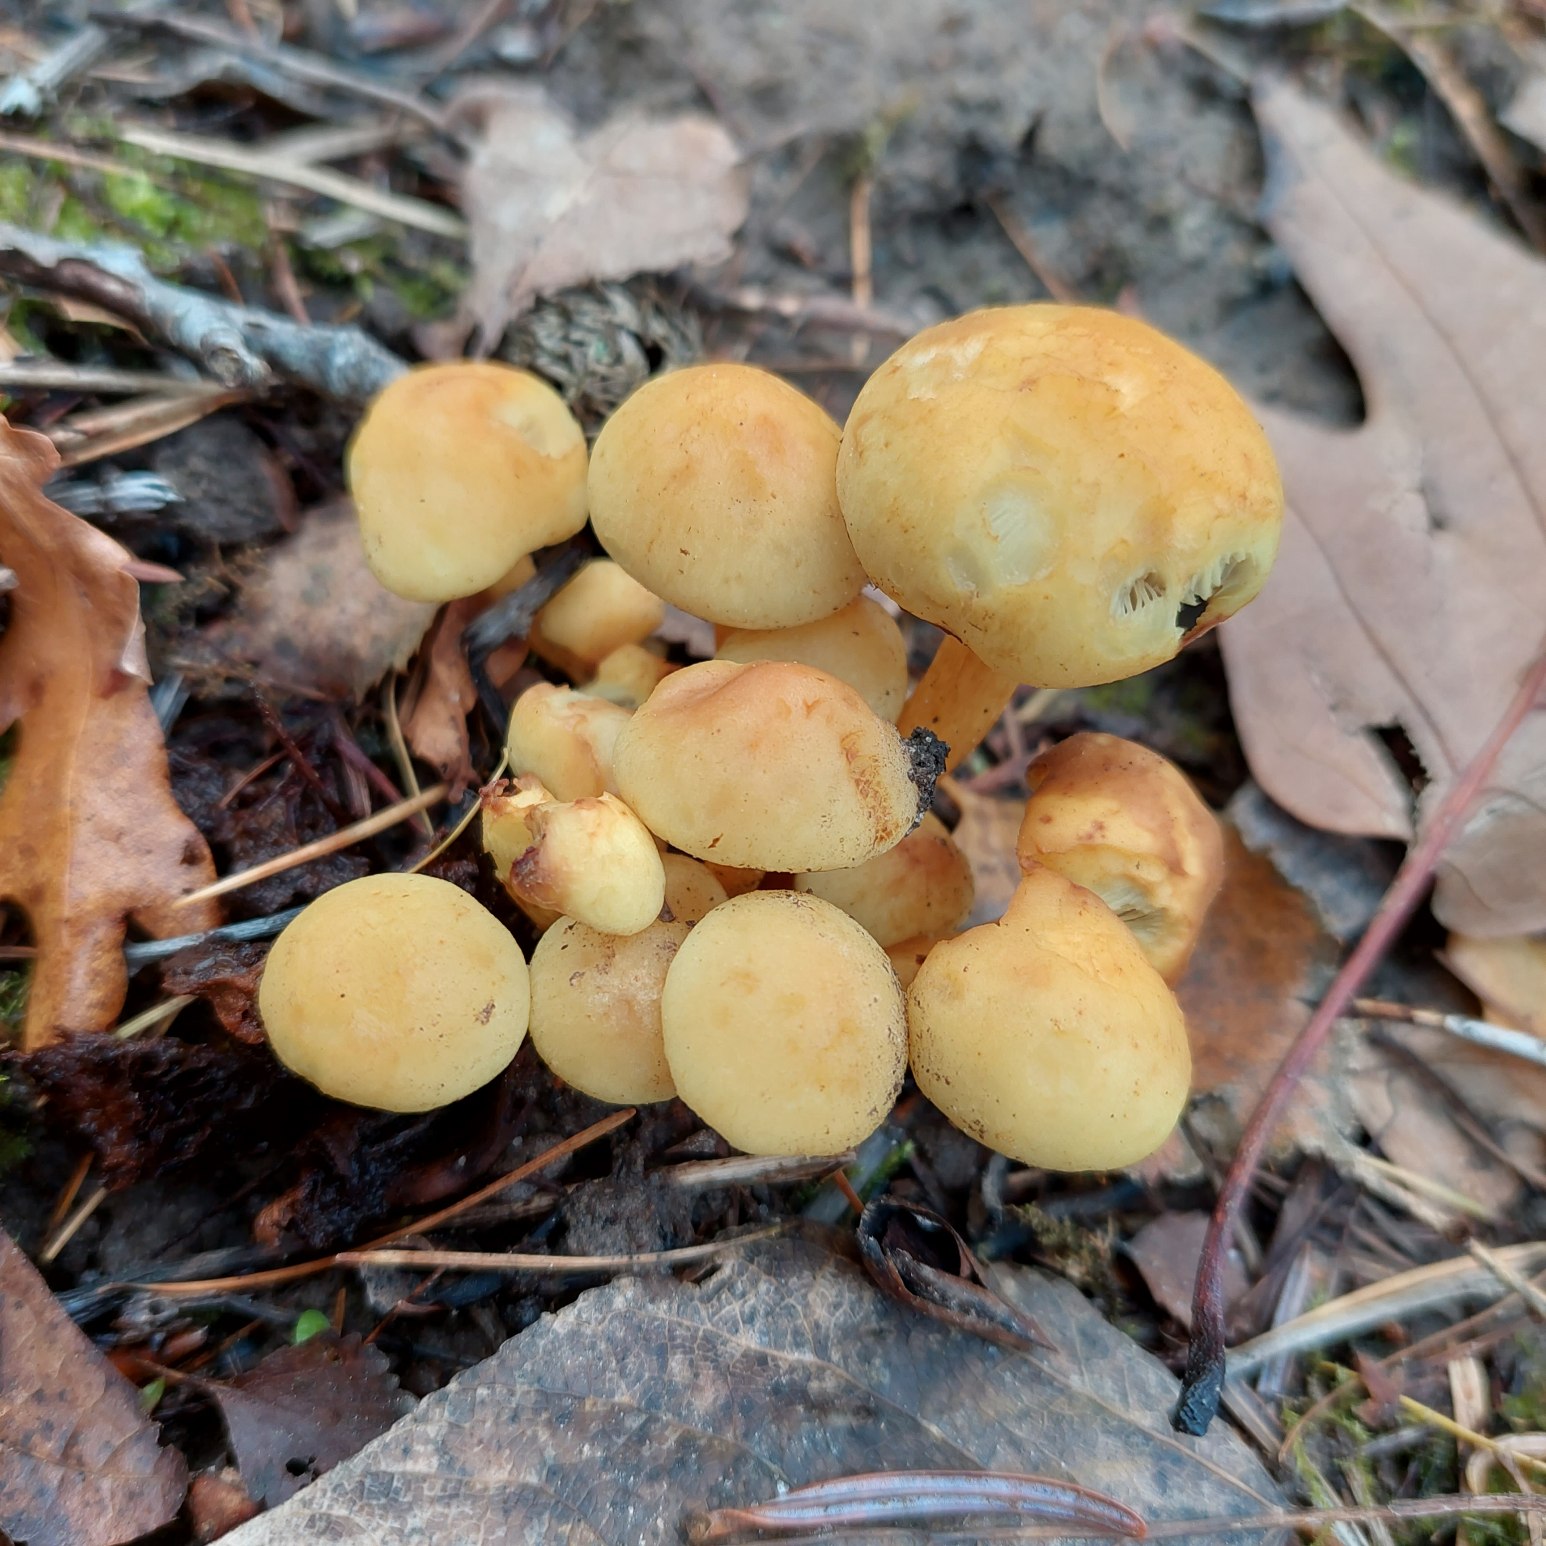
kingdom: Fungi
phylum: Basidiomycota
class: Agaricomycetes
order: Agaricales
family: Strophariaceae
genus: Hypholoma
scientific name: Hypholoma fasciculare
